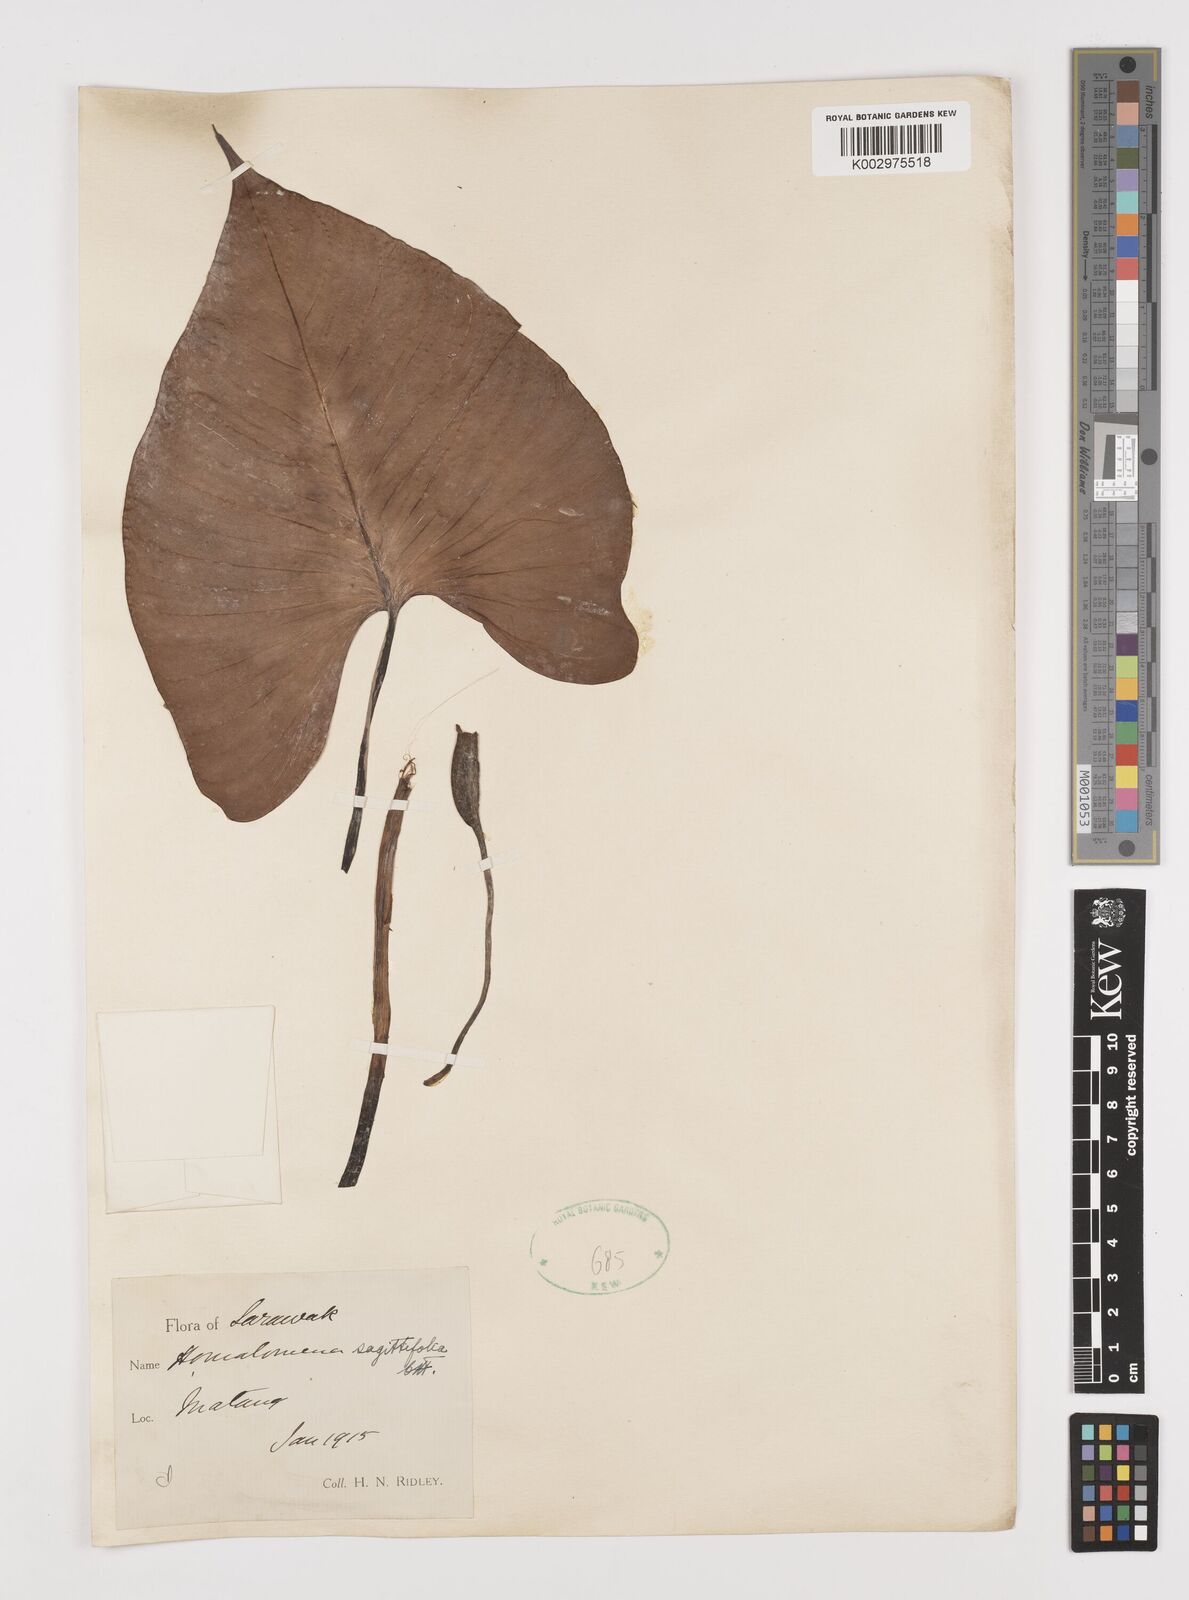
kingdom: Plantae
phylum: Tracheophyta
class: Liliopsida
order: Alismatales
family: Araceae
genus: Homalomena
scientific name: Homalomena rostrata
